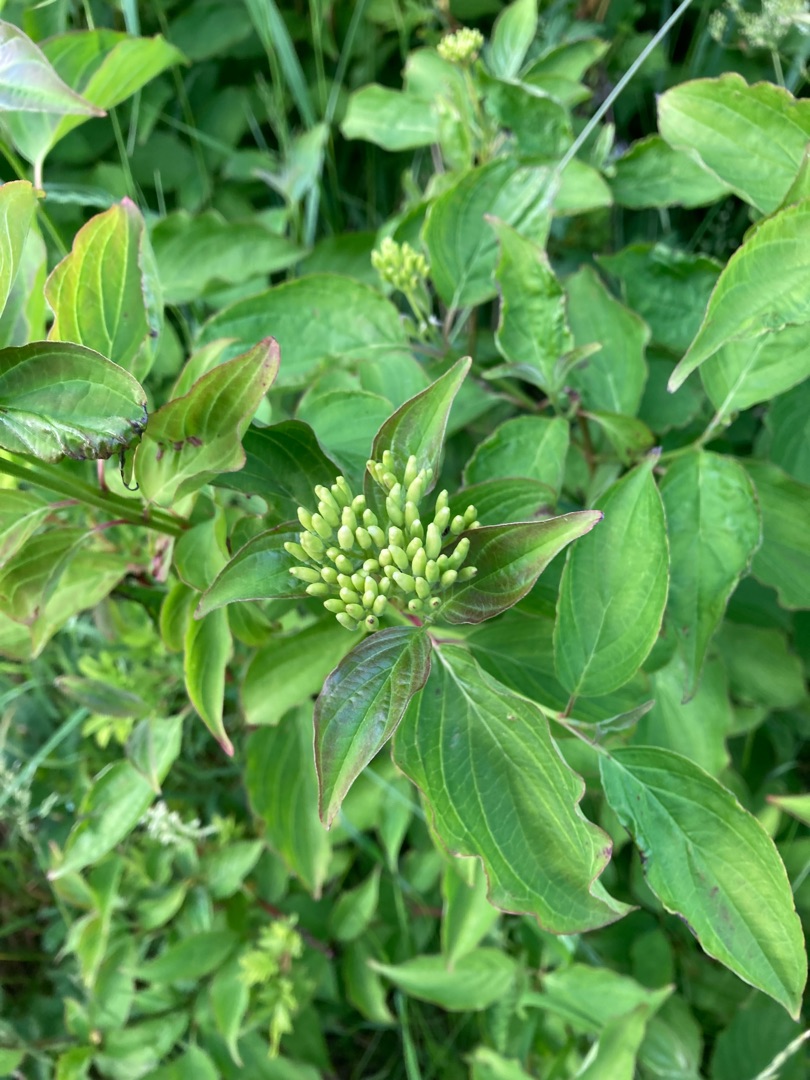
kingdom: Plantae
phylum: Tracheophyta
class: Magnoliopsida
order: Cornales
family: Cornaceae
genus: Cornus
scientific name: Cornus sanguinea
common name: Rød kornel
